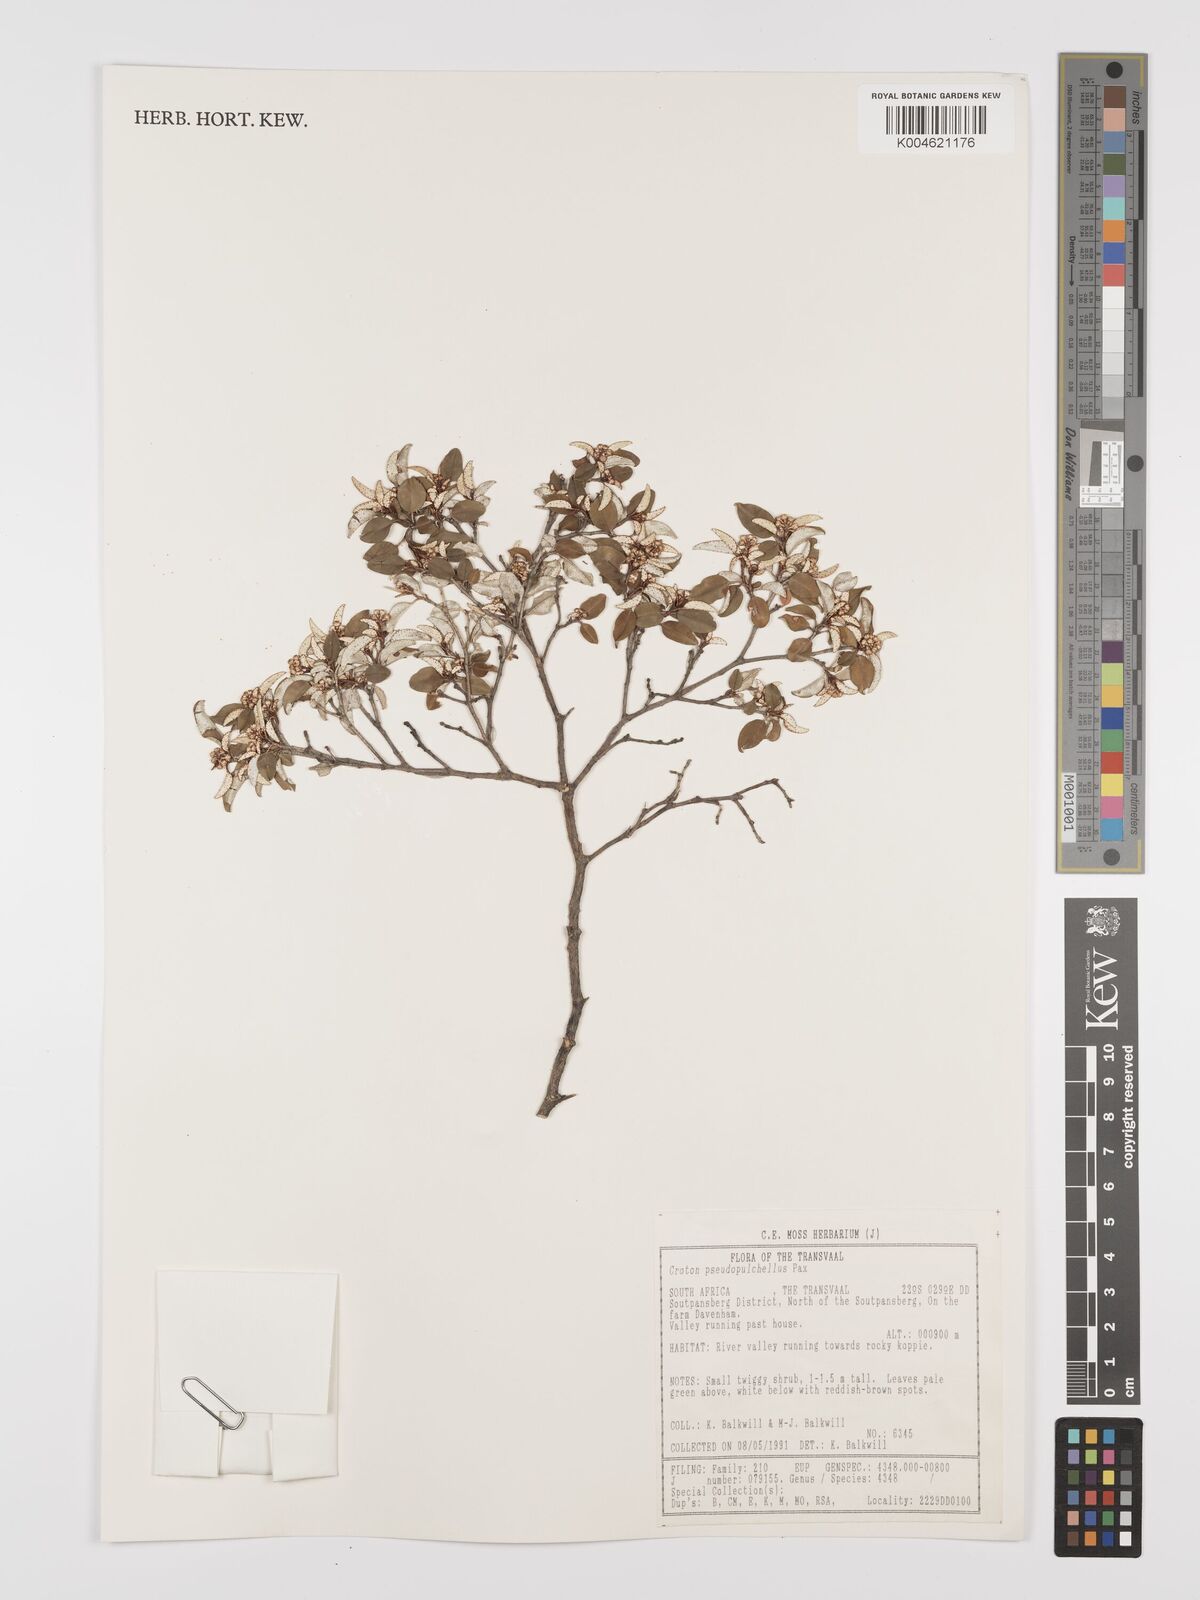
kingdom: Plantae
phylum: Tracheophyta
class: Magnoliopsida
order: Malpighiales
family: Euphorbiaceae
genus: Croton
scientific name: Croton pseudopulchellus
